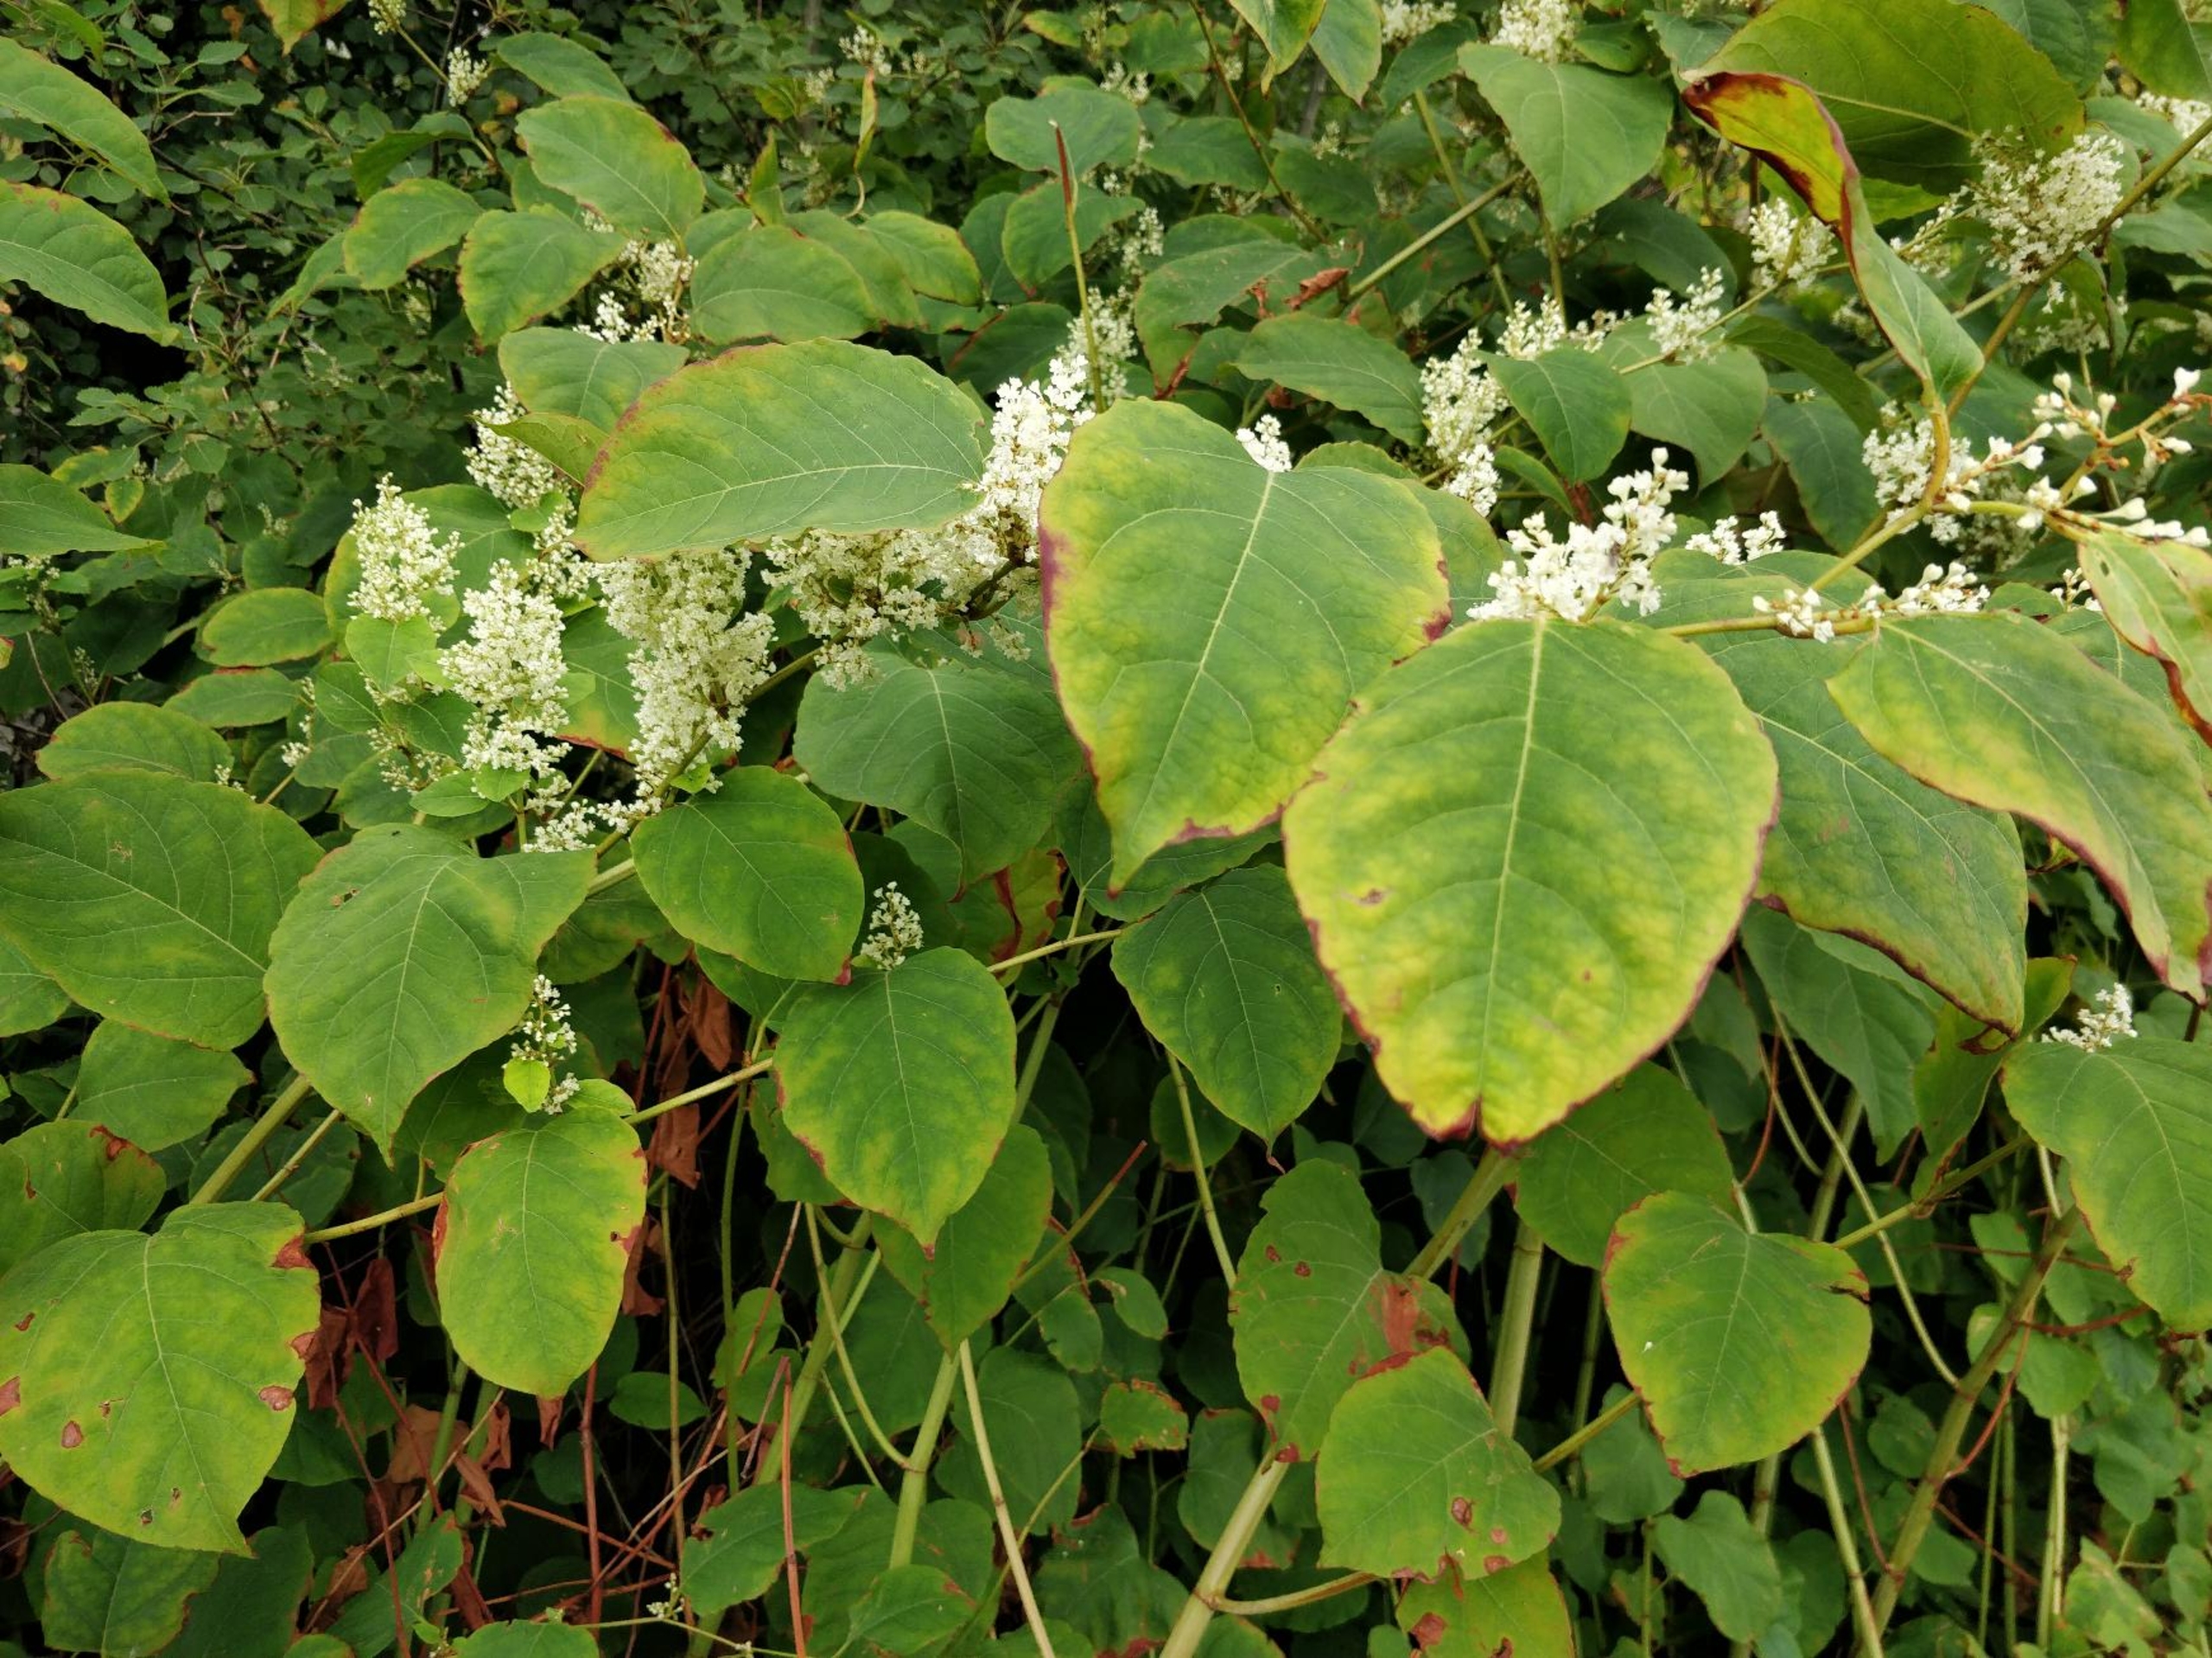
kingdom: Plantae
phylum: Tracheophyta
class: Magnoliopsida
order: Caryophyllales
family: Polygonaceae
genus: Reynoutria
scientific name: Reynoutria japonica
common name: Japan-pileurt
